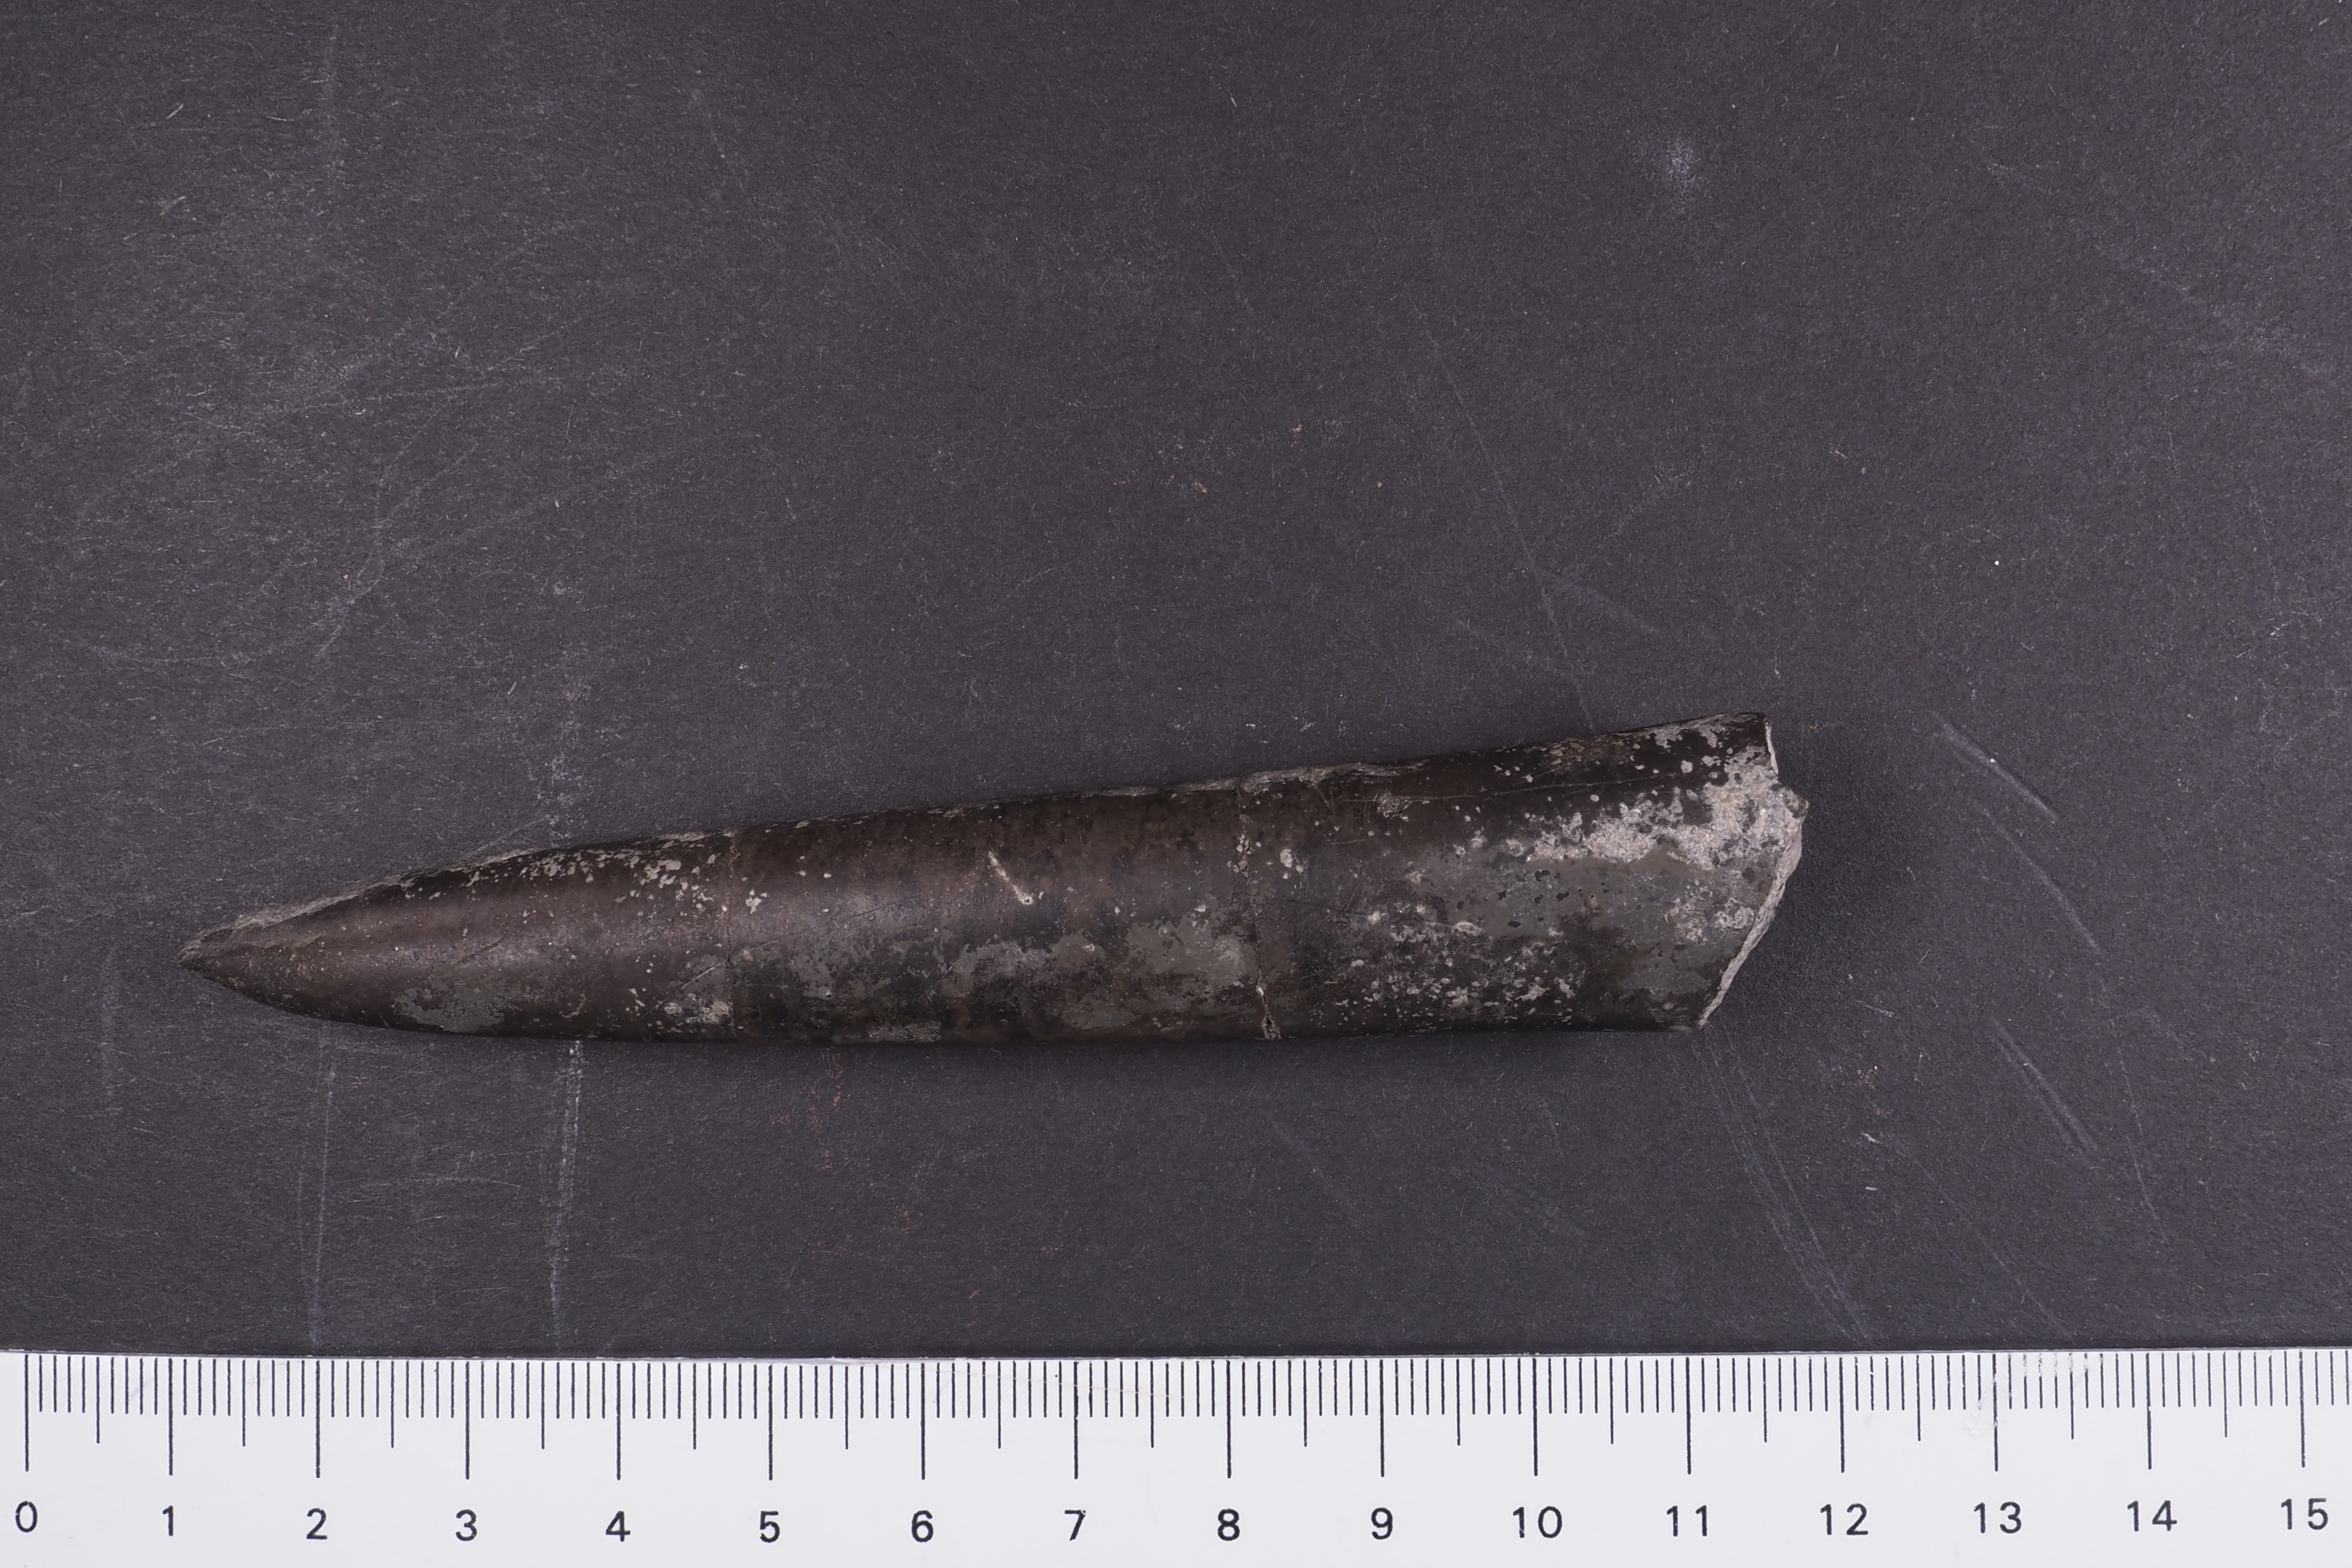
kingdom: Animalia
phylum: Mollusca
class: Cephalopoda
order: Belemnitida
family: Megateuthididae
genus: Acrocoelites
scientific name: Acrocoelites
